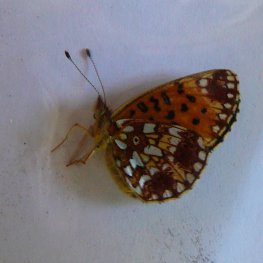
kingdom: Animalia
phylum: Arthropoda
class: Insecta
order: Lepidoptera
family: Nymphalidae
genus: Boloria
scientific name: Boloria selene
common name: Silver-bordered Fritillary
